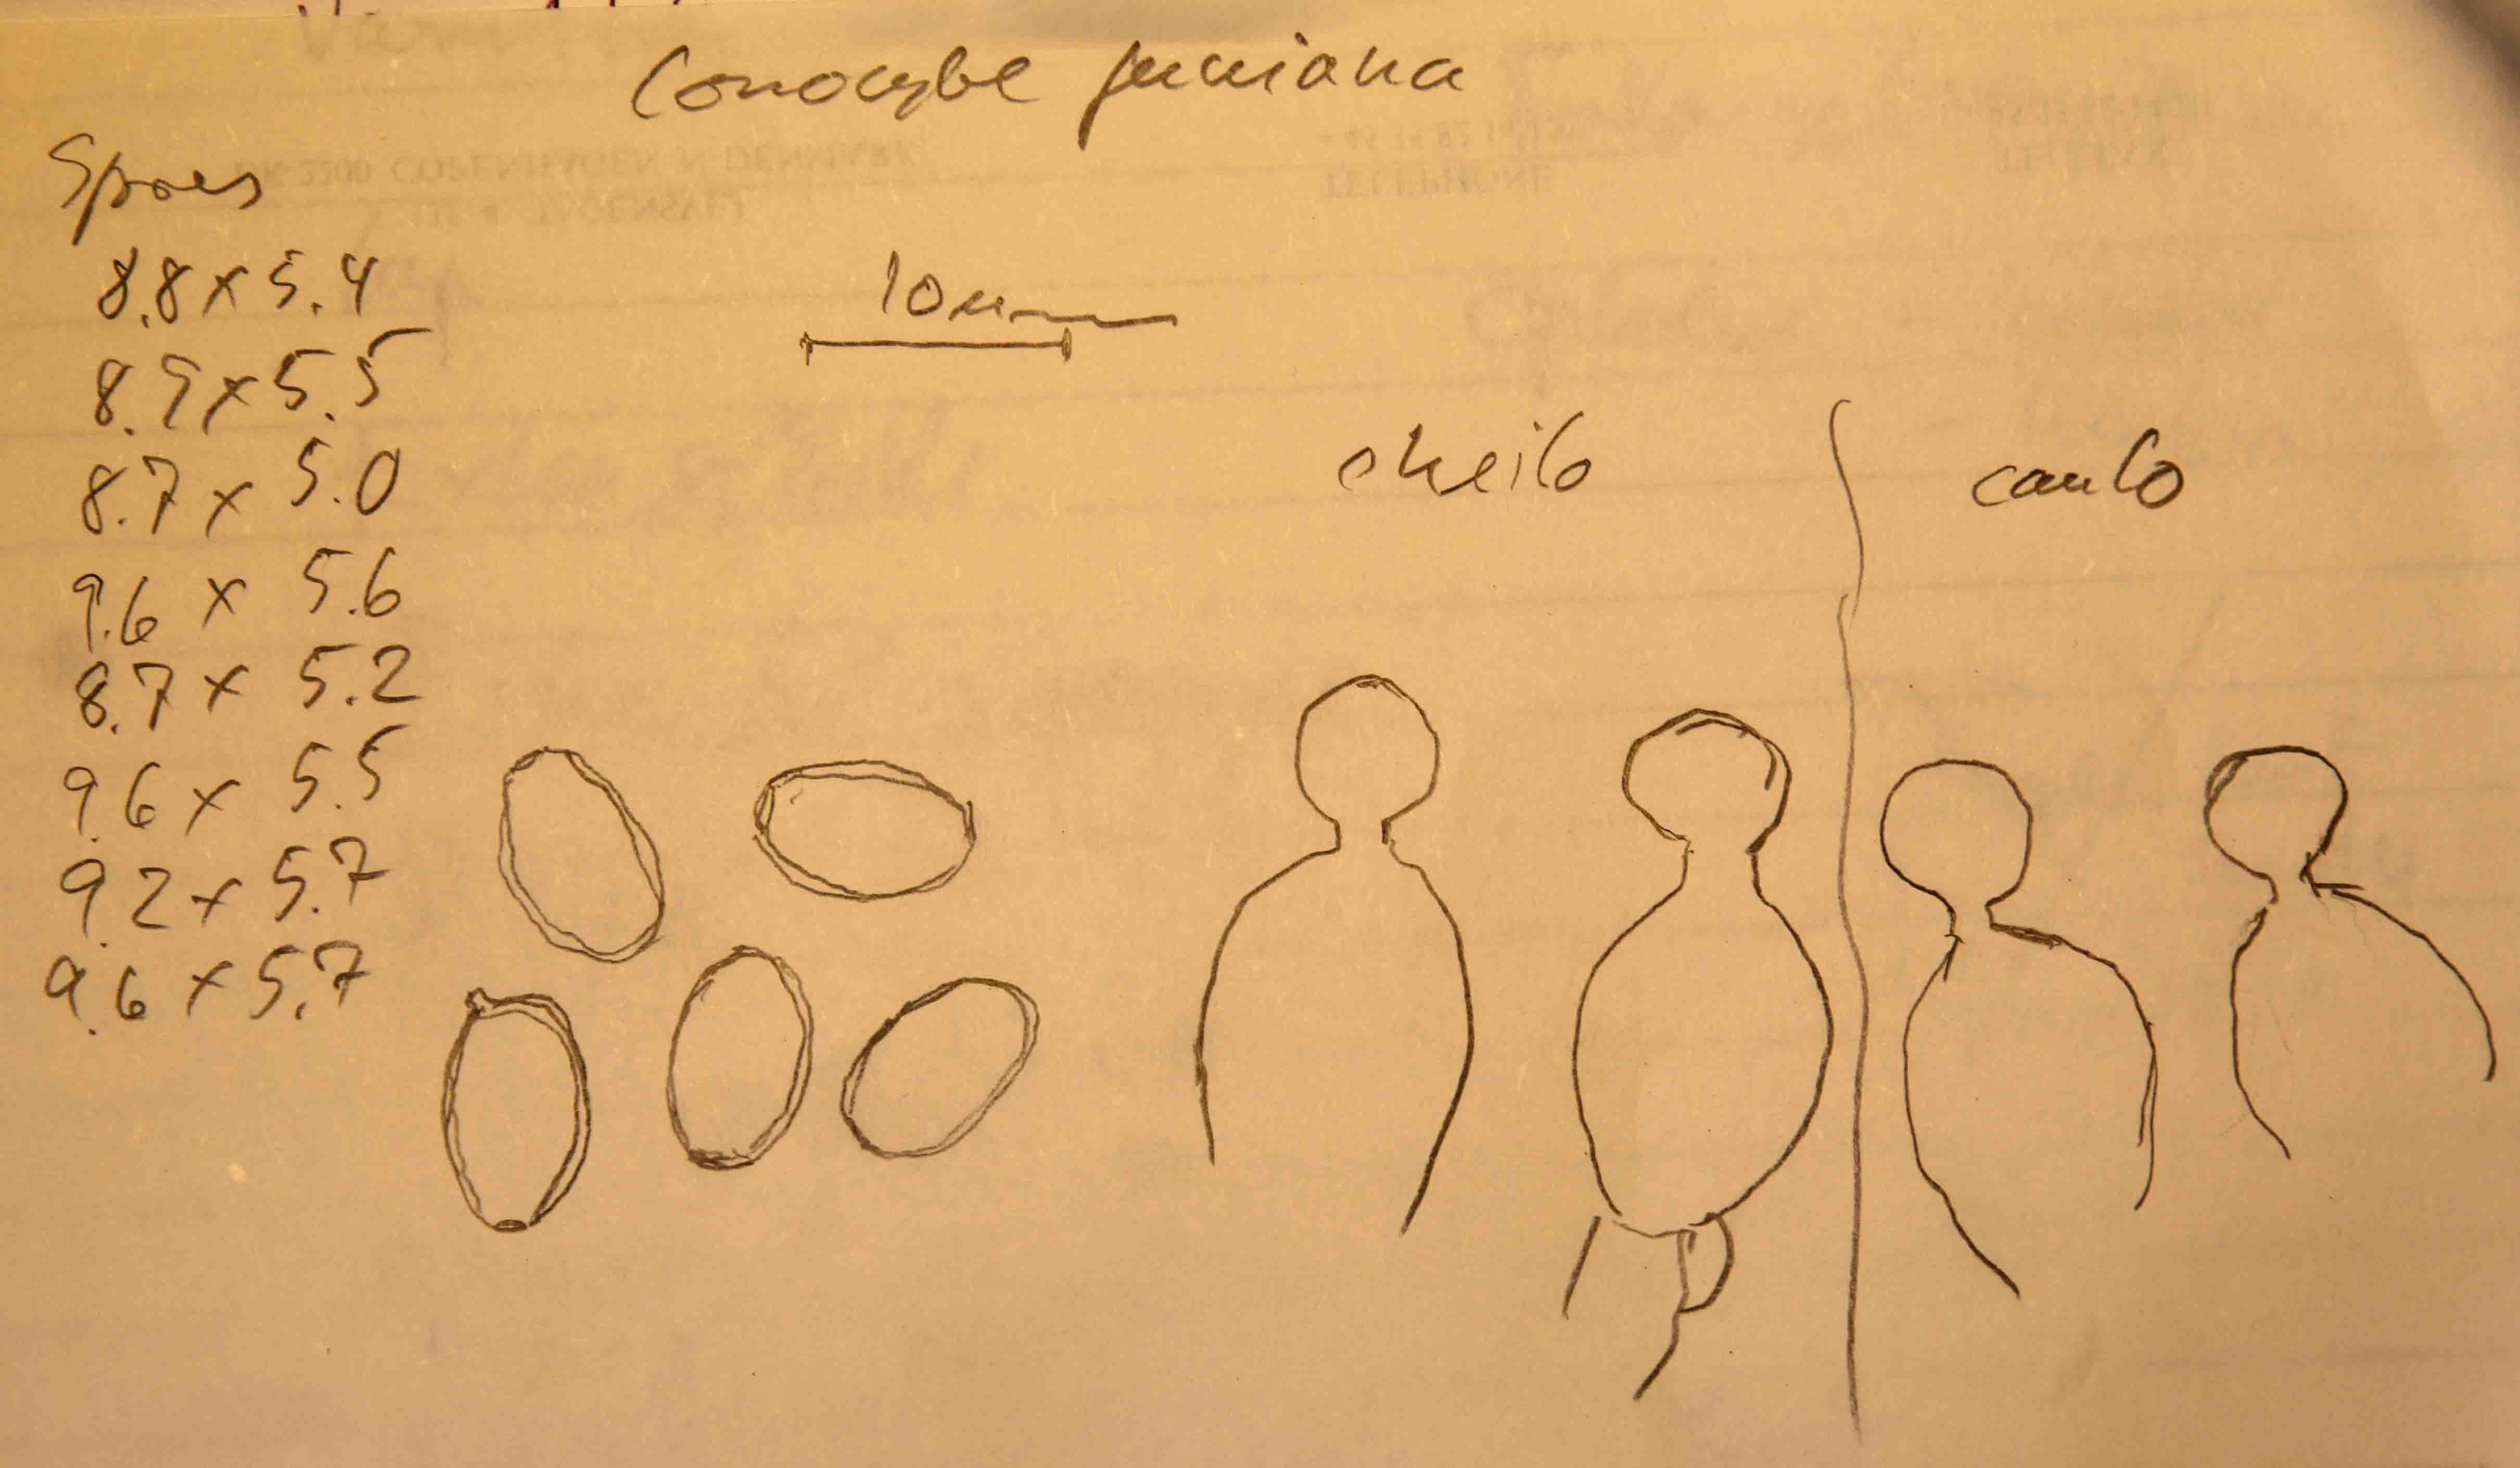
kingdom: Fungi
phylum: Basidiomycota
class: Agaricomycetes
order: Agaricales
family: Bolbitiaceae
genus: Conocybe
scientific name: Conocybe juniana
